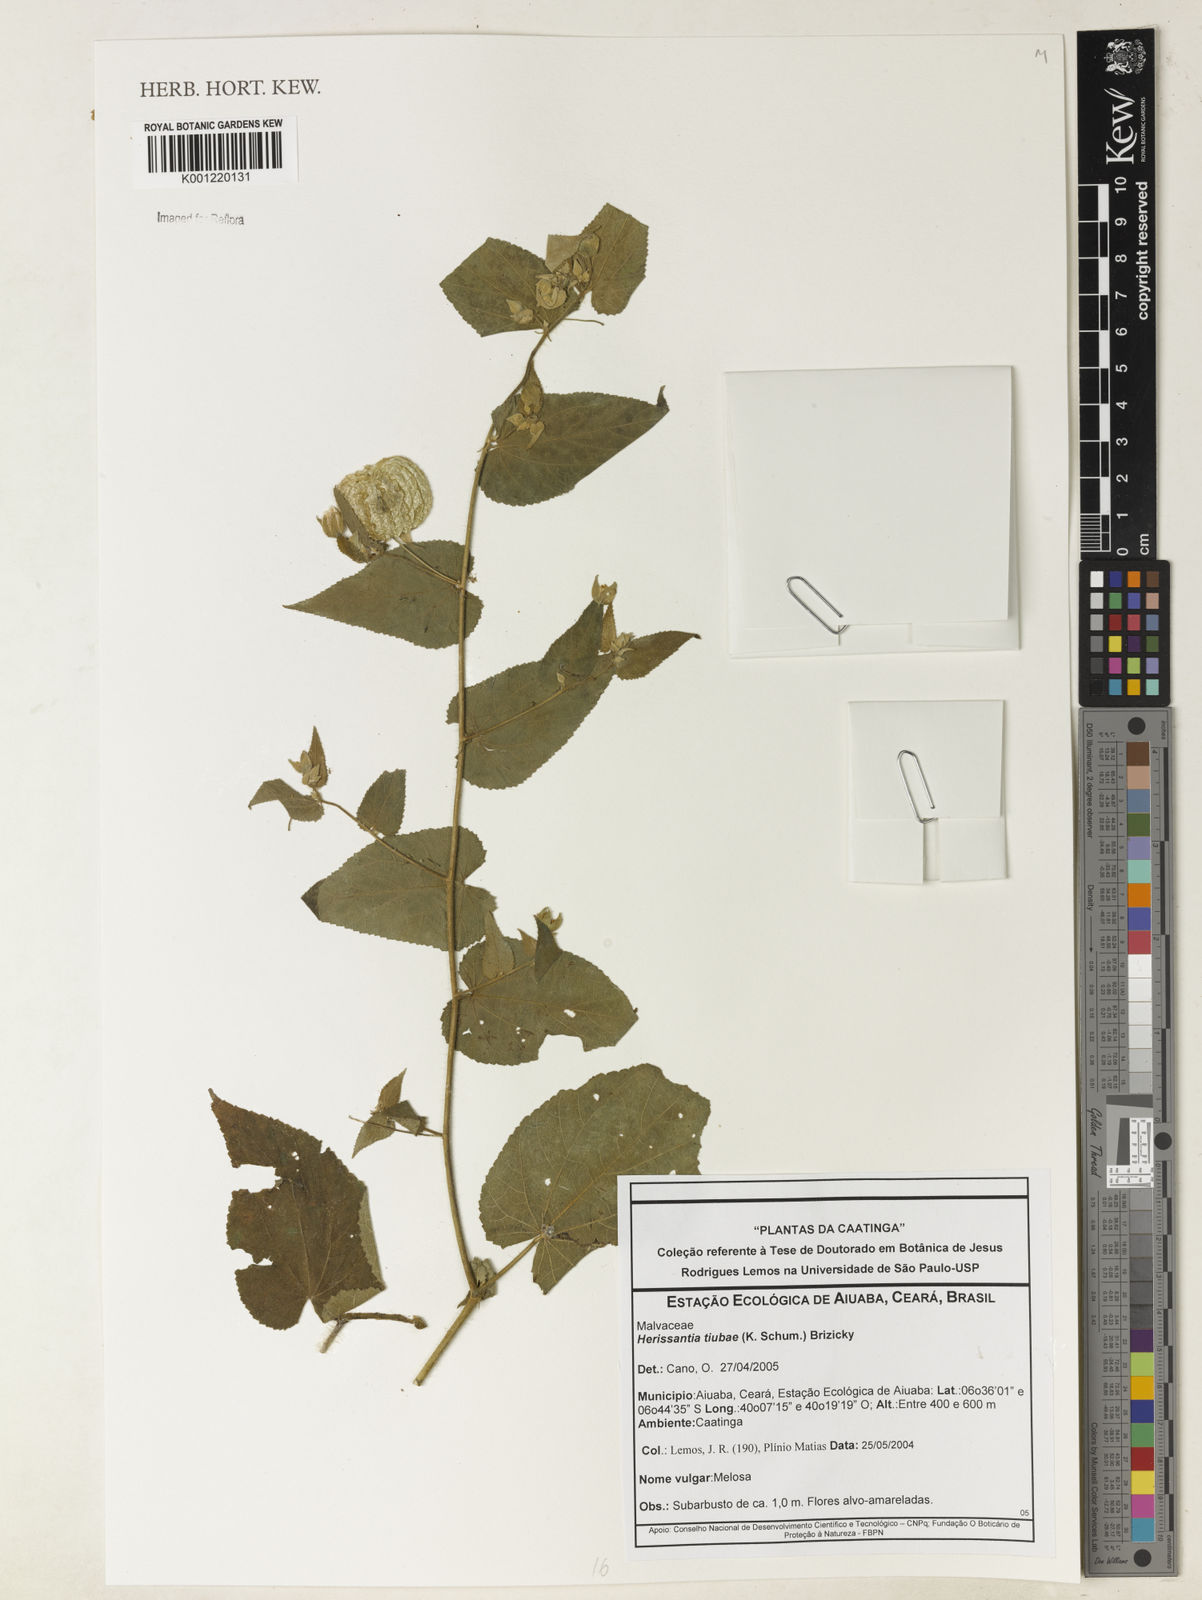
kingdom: Plantae
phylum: Tracheophyta
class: Magnoliopsida
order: Malvales
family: Malvaceae
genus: Herissantia
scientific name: Herissantia tiubae
